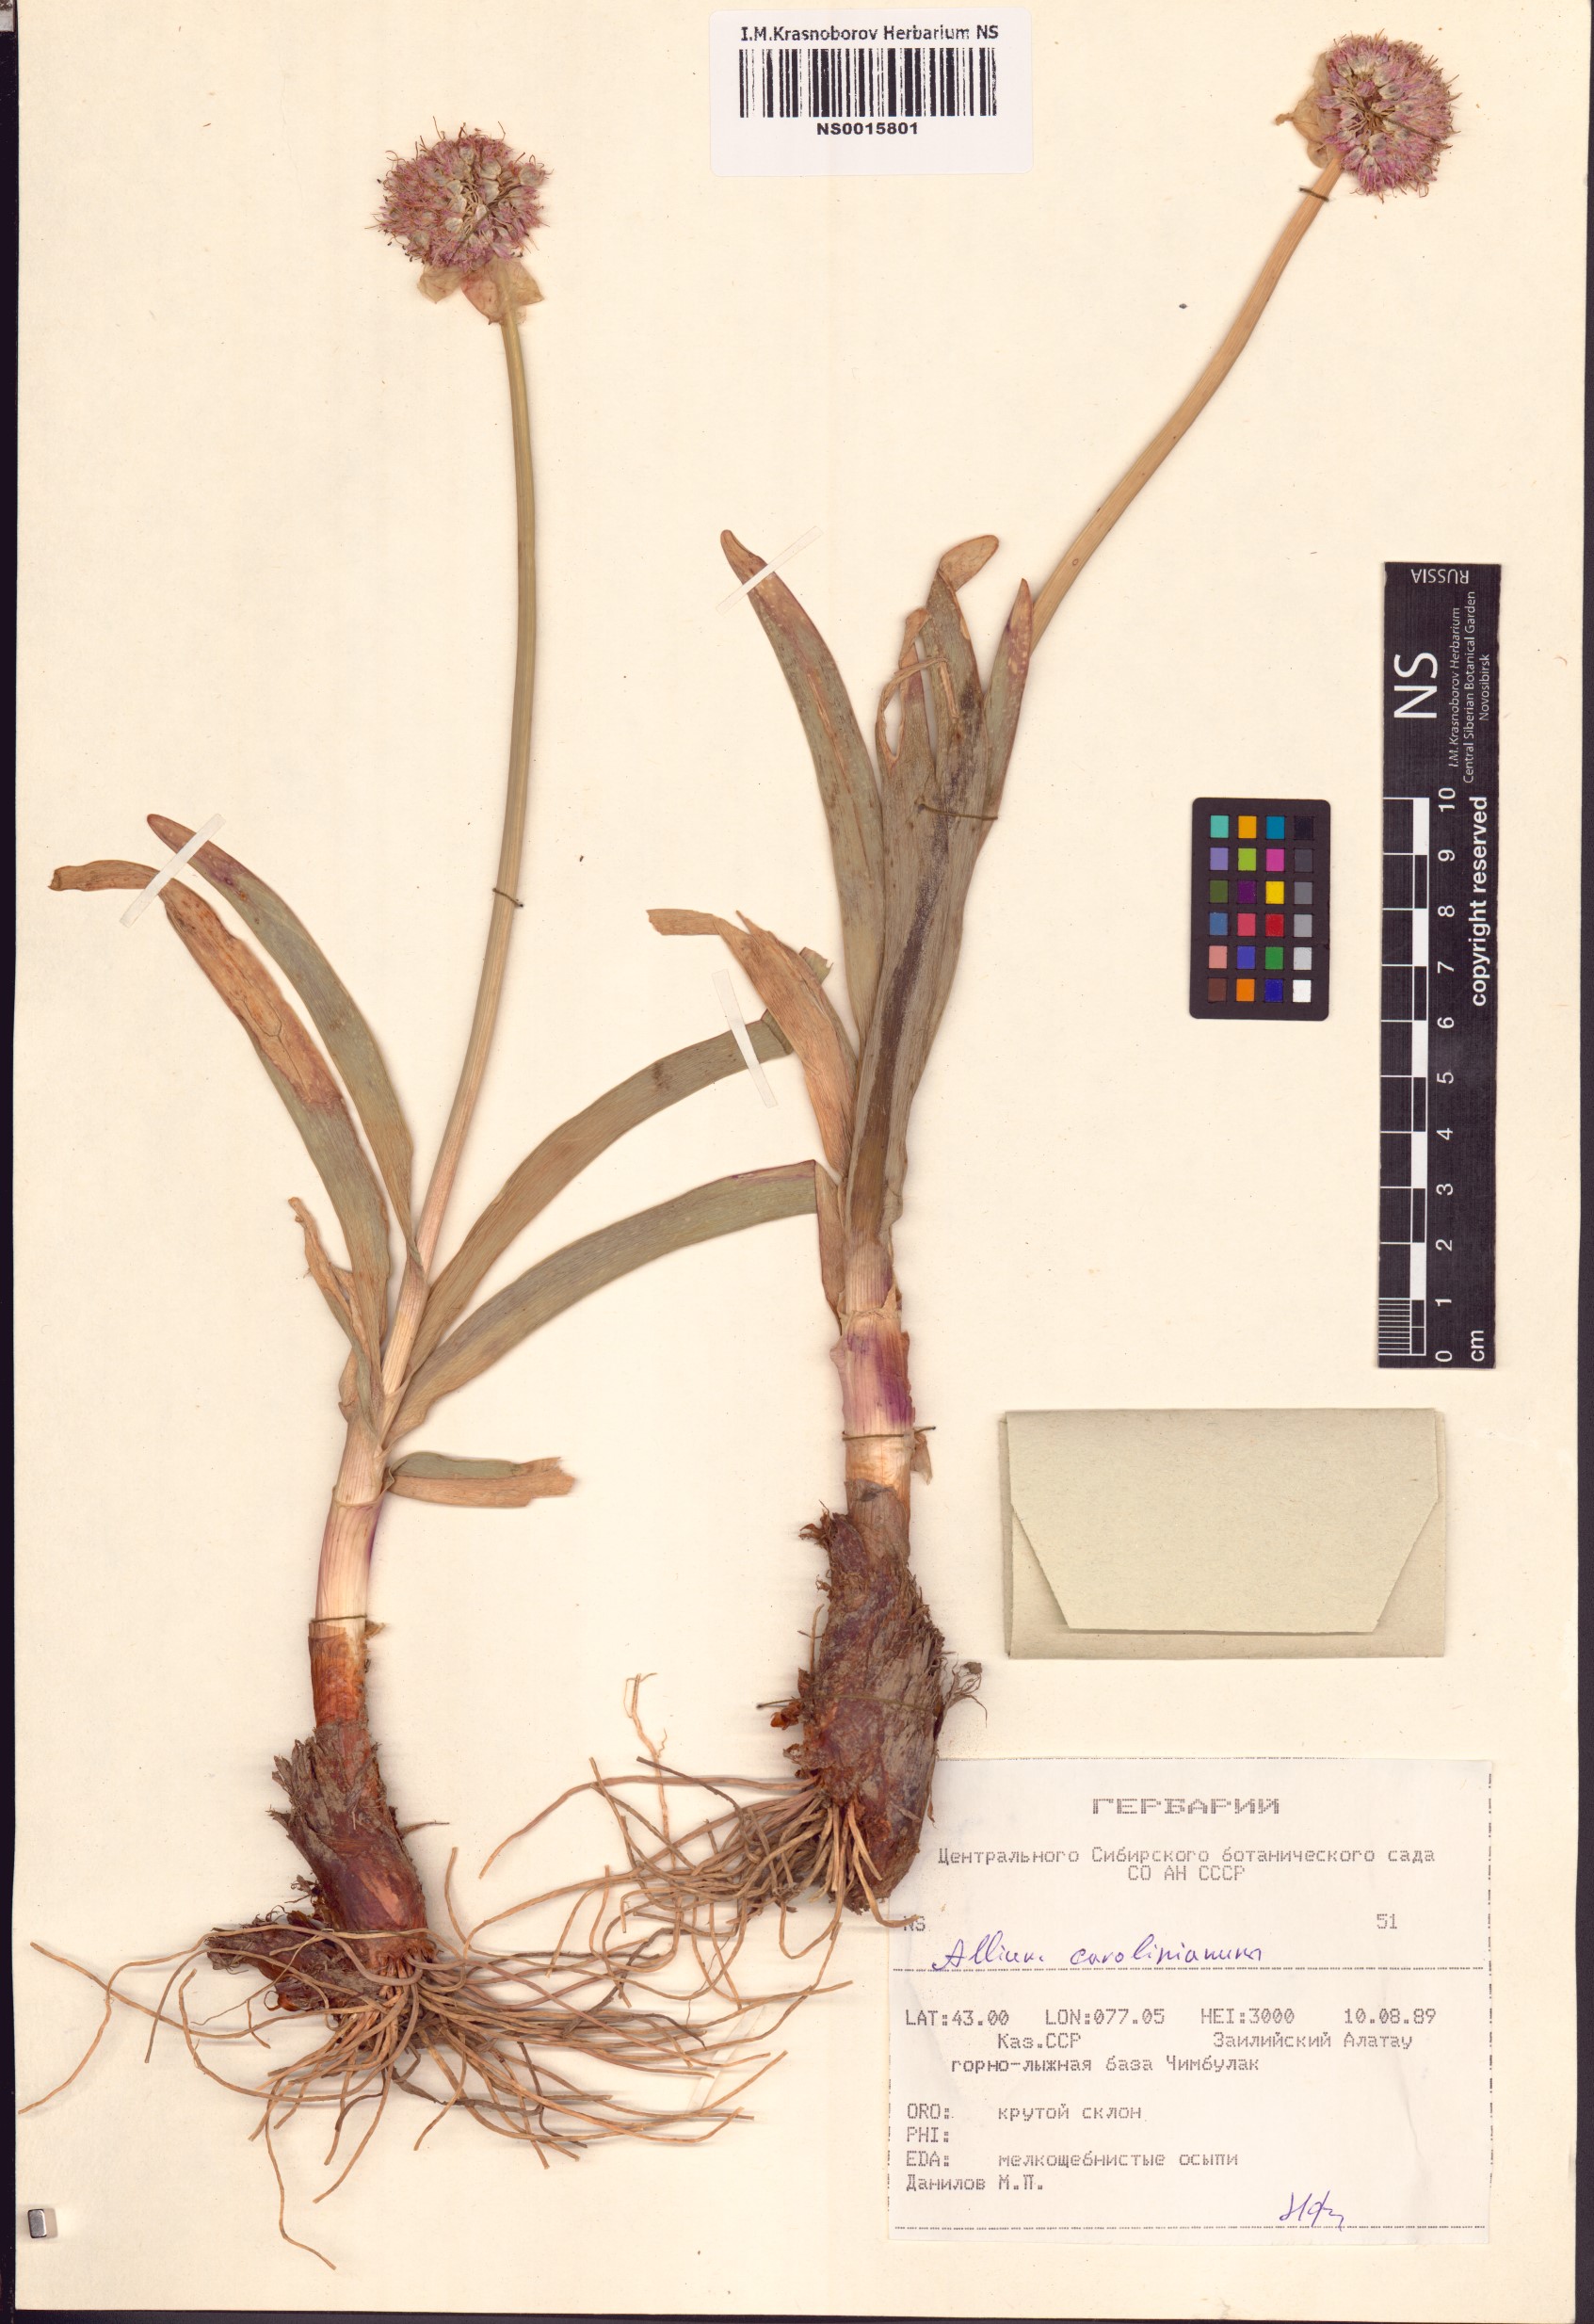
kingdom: Plantae
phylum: Tracheophyta
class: Liliopsida
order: Asparagales
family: Amaryllidaceae
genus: Allium
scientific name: Allium carolinianum
